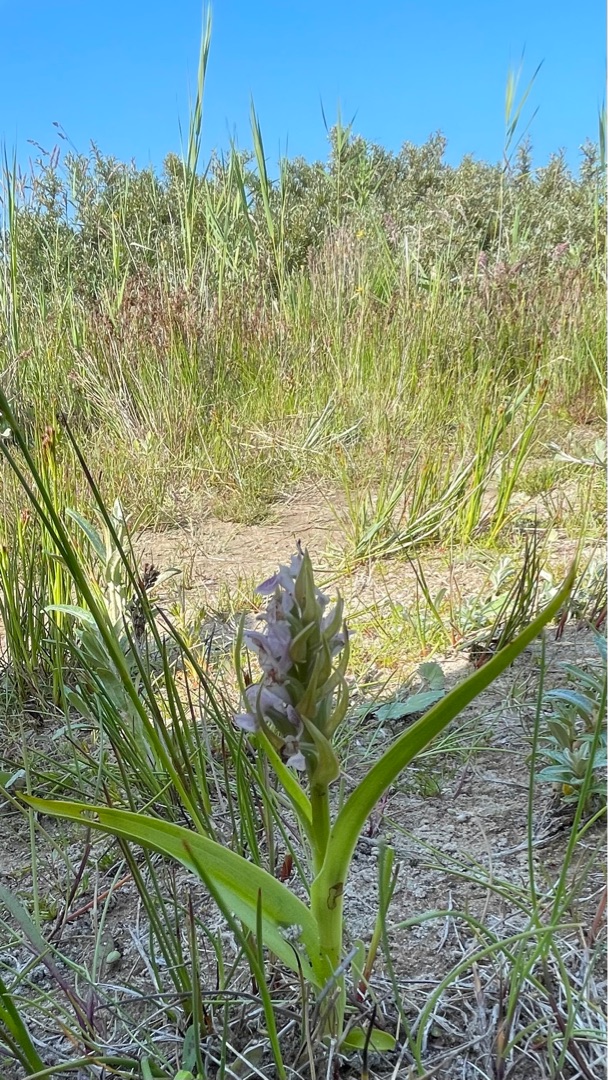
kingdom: Plantae
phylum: Tracheophyta
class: Liliopsida
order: Asparagales
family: Orchidaceae
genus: Dactylorhiza
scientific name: Dactylorhiza incarnata
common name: Klit-gøgeurt
